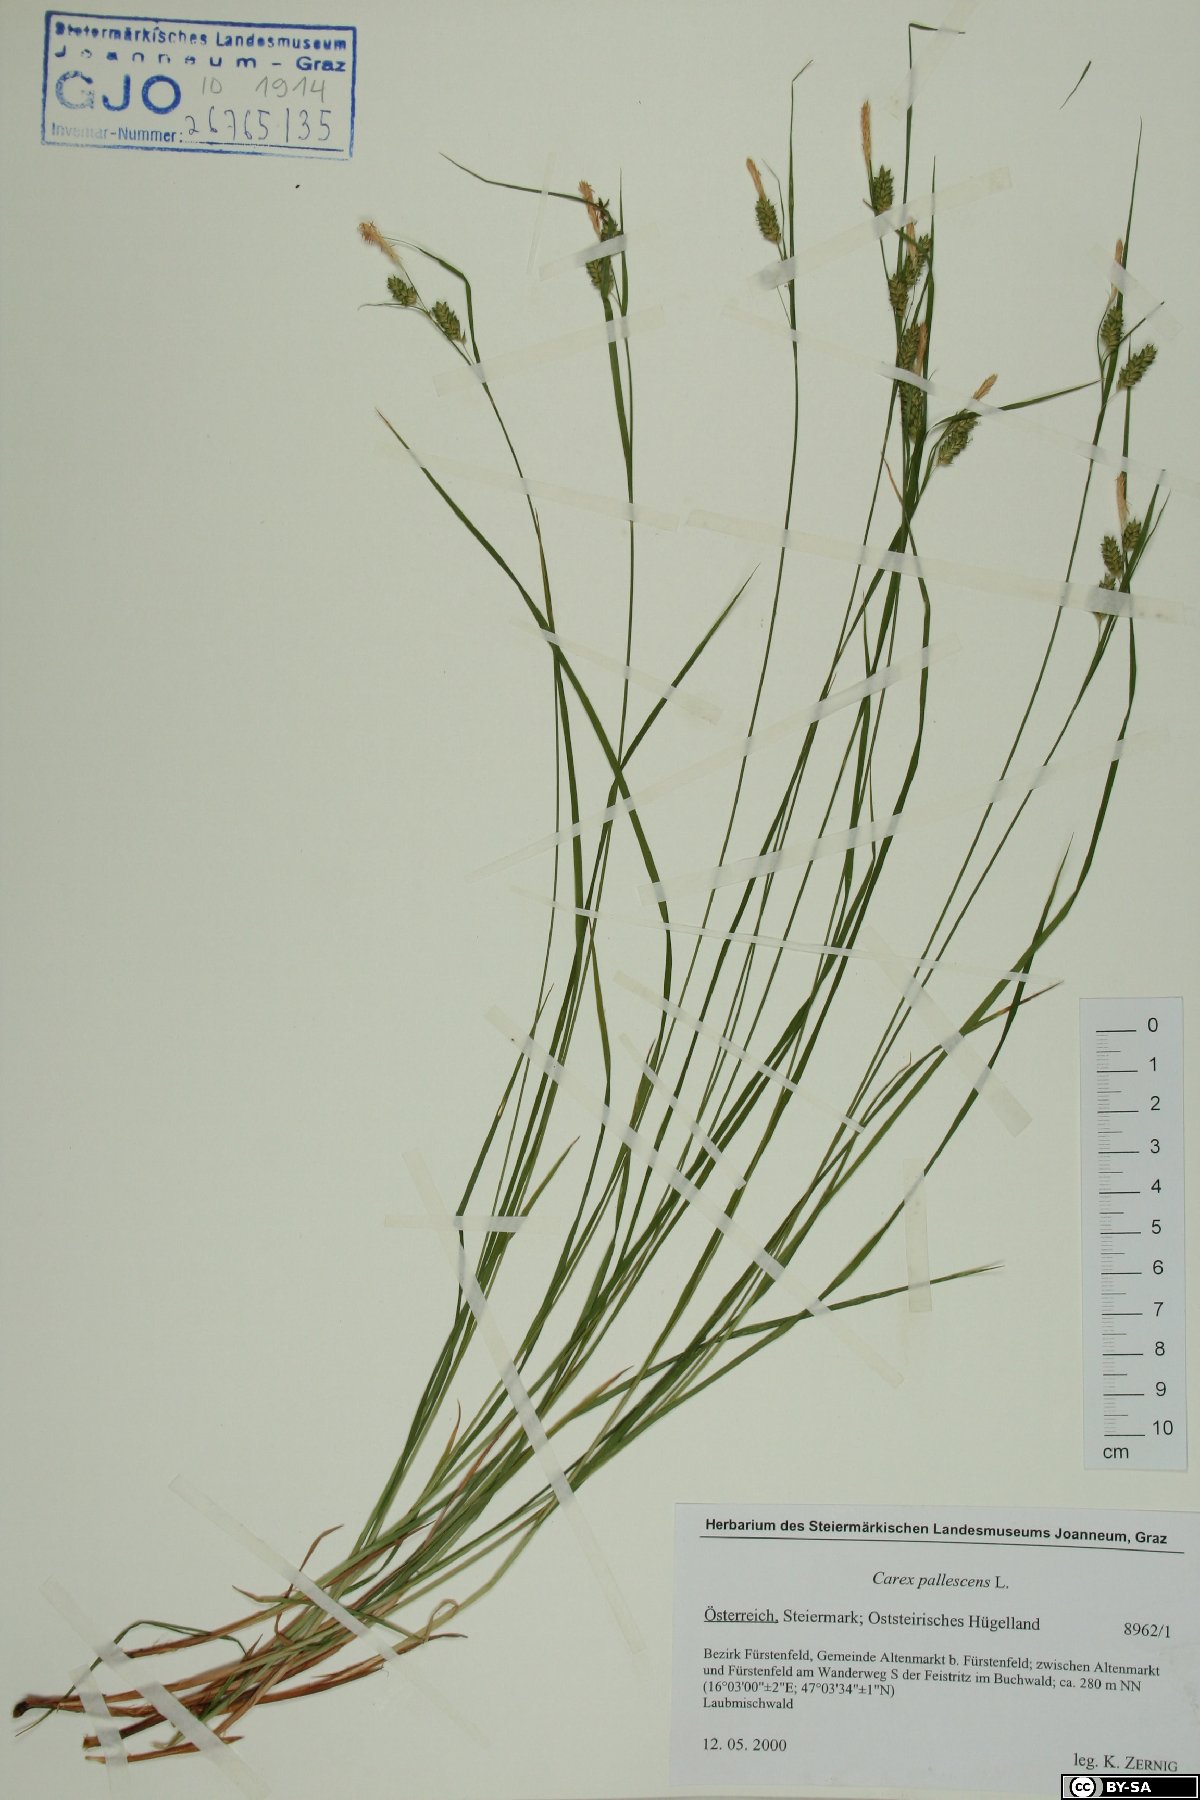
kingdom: Plantae
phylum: Tracheophyta
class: Liliopsida
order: Poales
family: Cyperaceae
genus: Carex
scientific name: Carex pallescens
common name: Pale sedge
